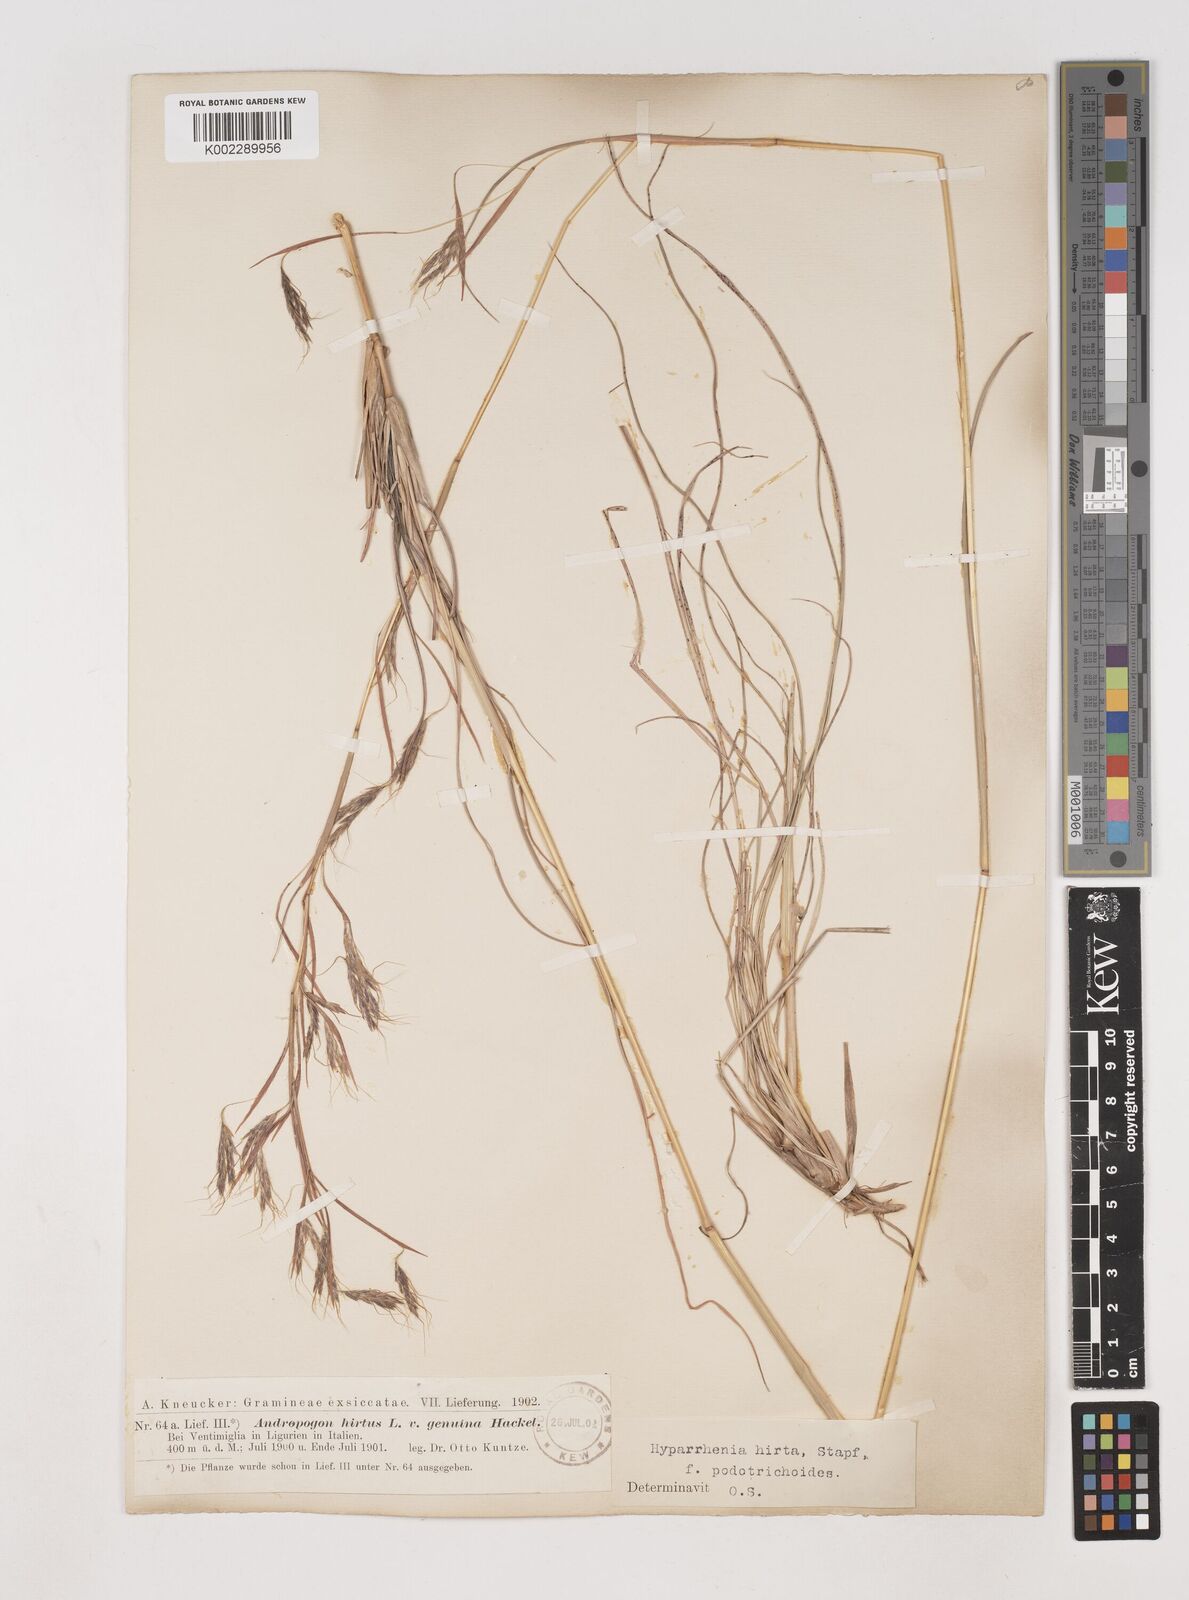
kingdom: Plantae
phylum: Tracheophyta
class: Liliopsida
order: Poales
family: Poaceae
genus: Hyparrhenia
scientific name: Hyparrhenia hirta
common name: Thatching grass
